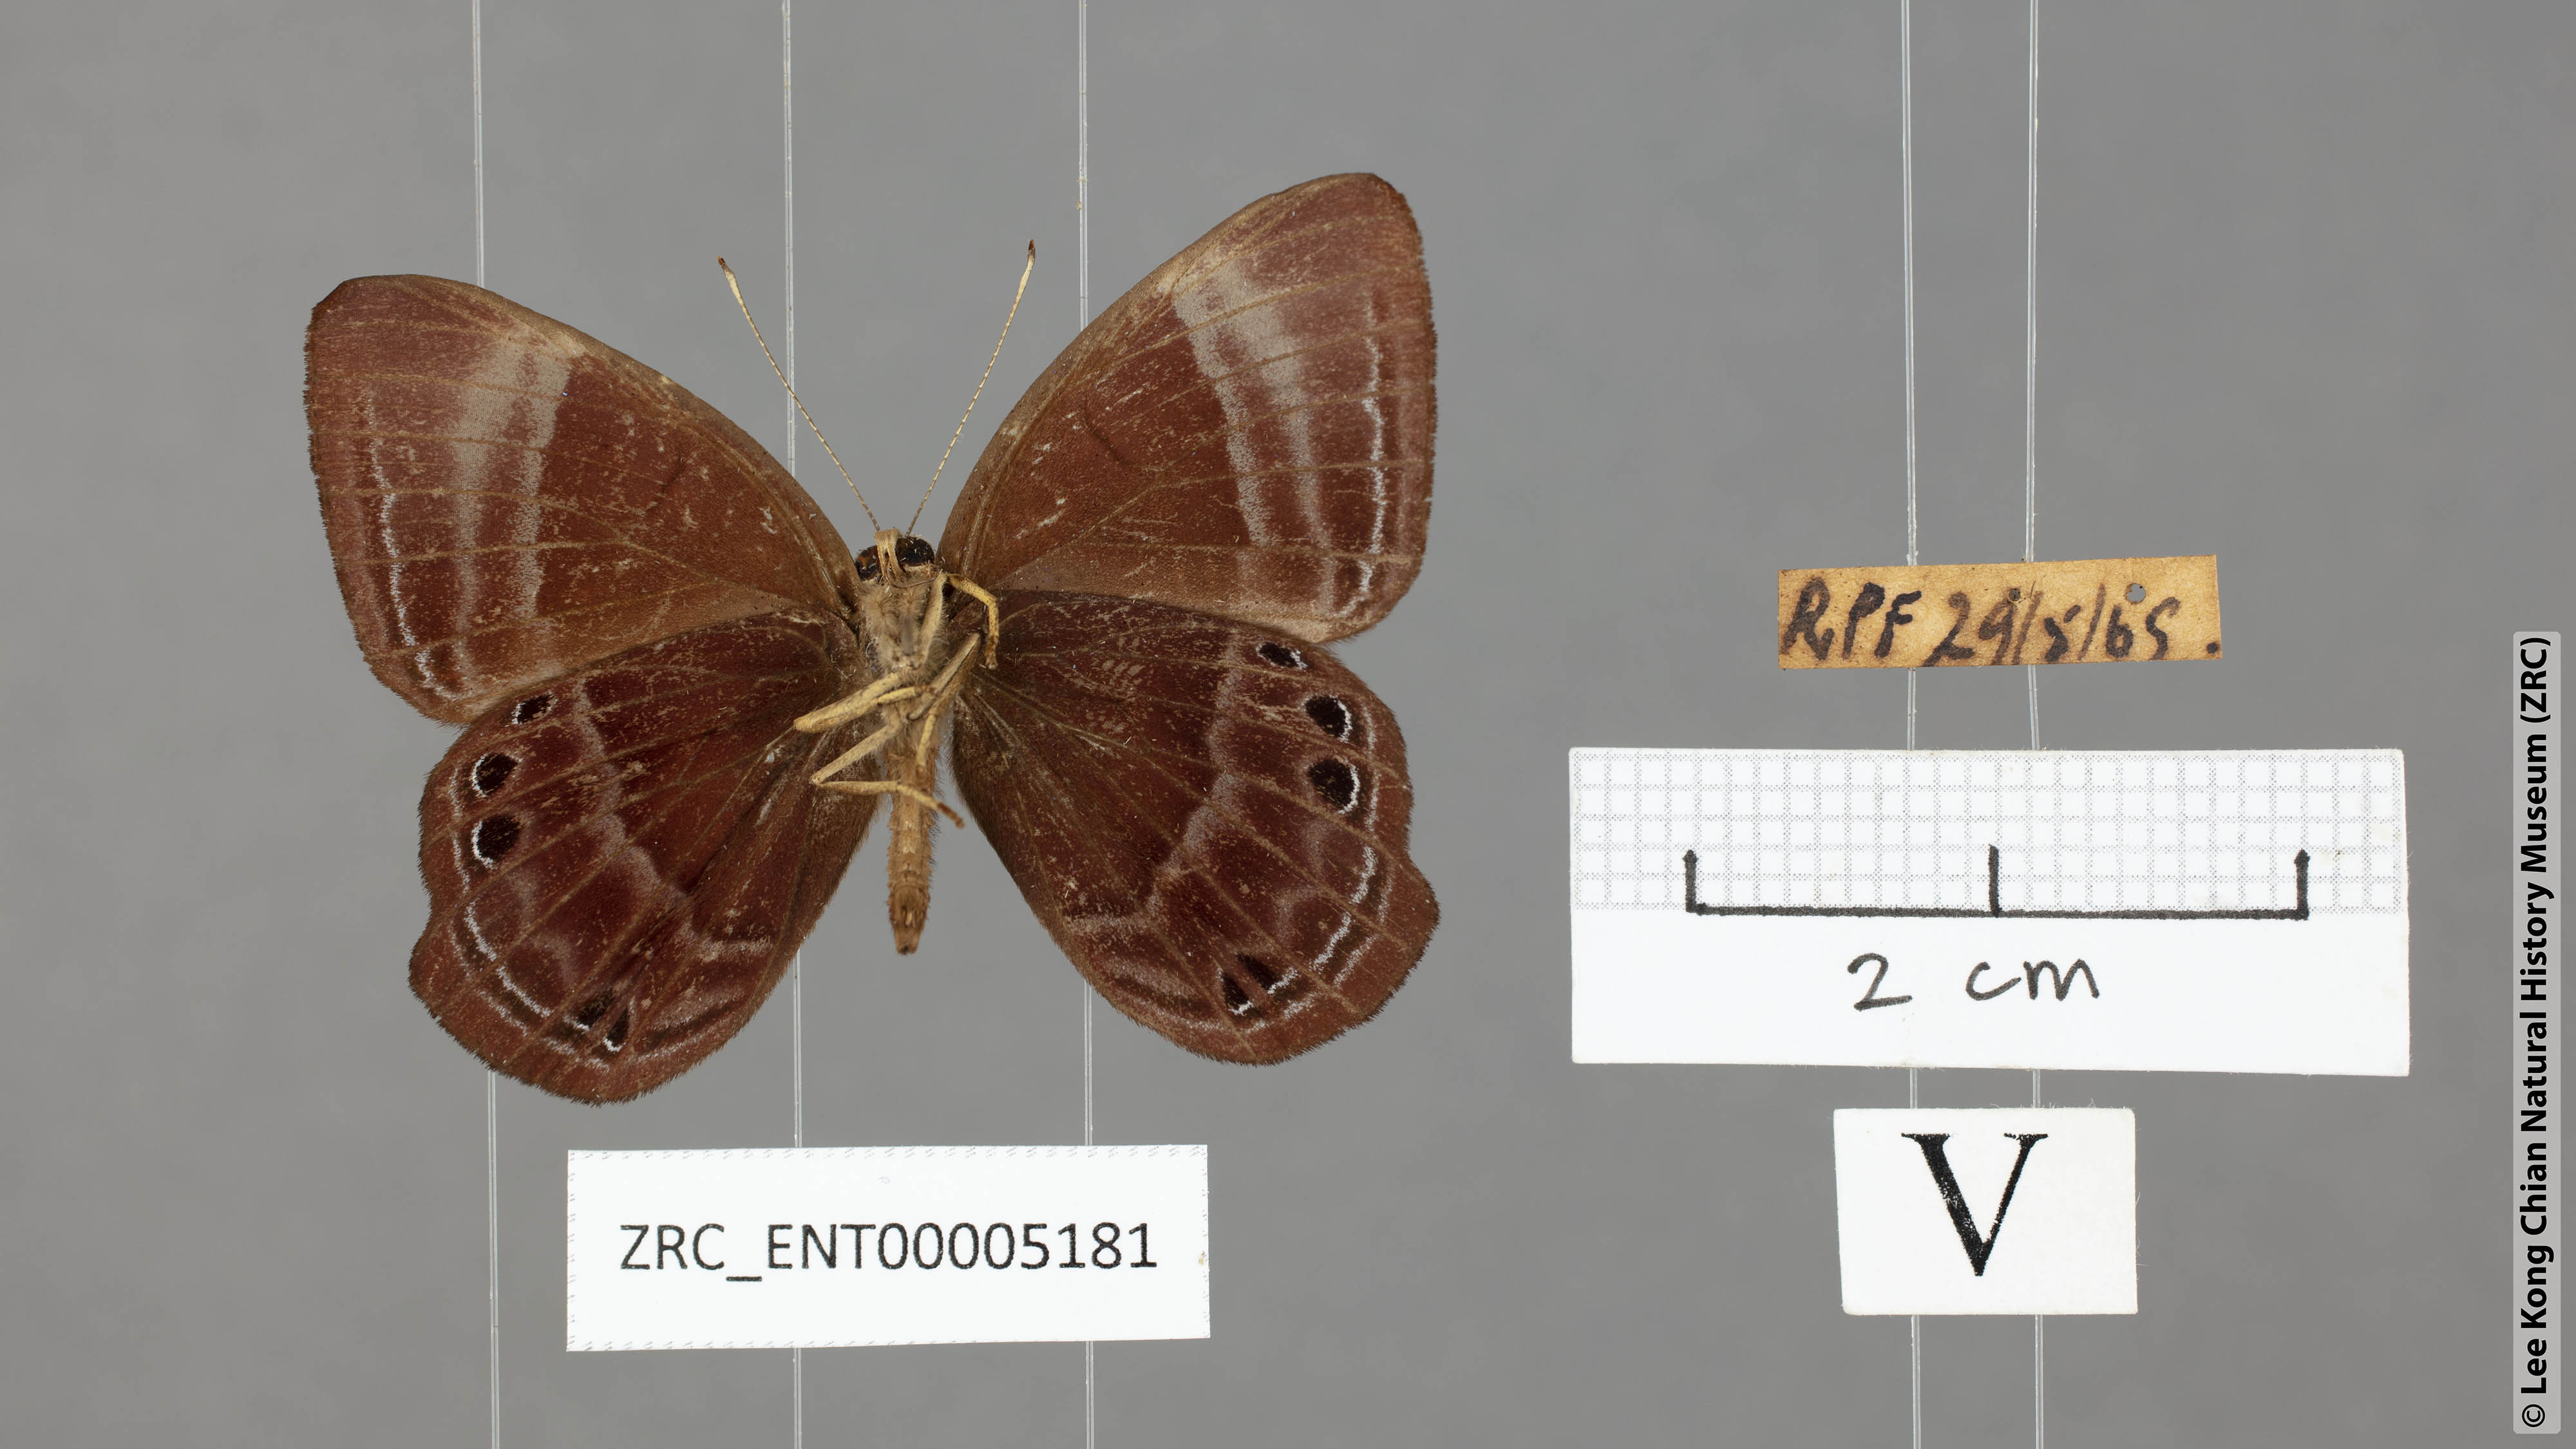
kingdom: Animalia
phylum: Arthropoda
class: Insecta
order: Lepidoptera
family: Lycaenidae
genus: Abisara
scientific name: Abisara saturata
